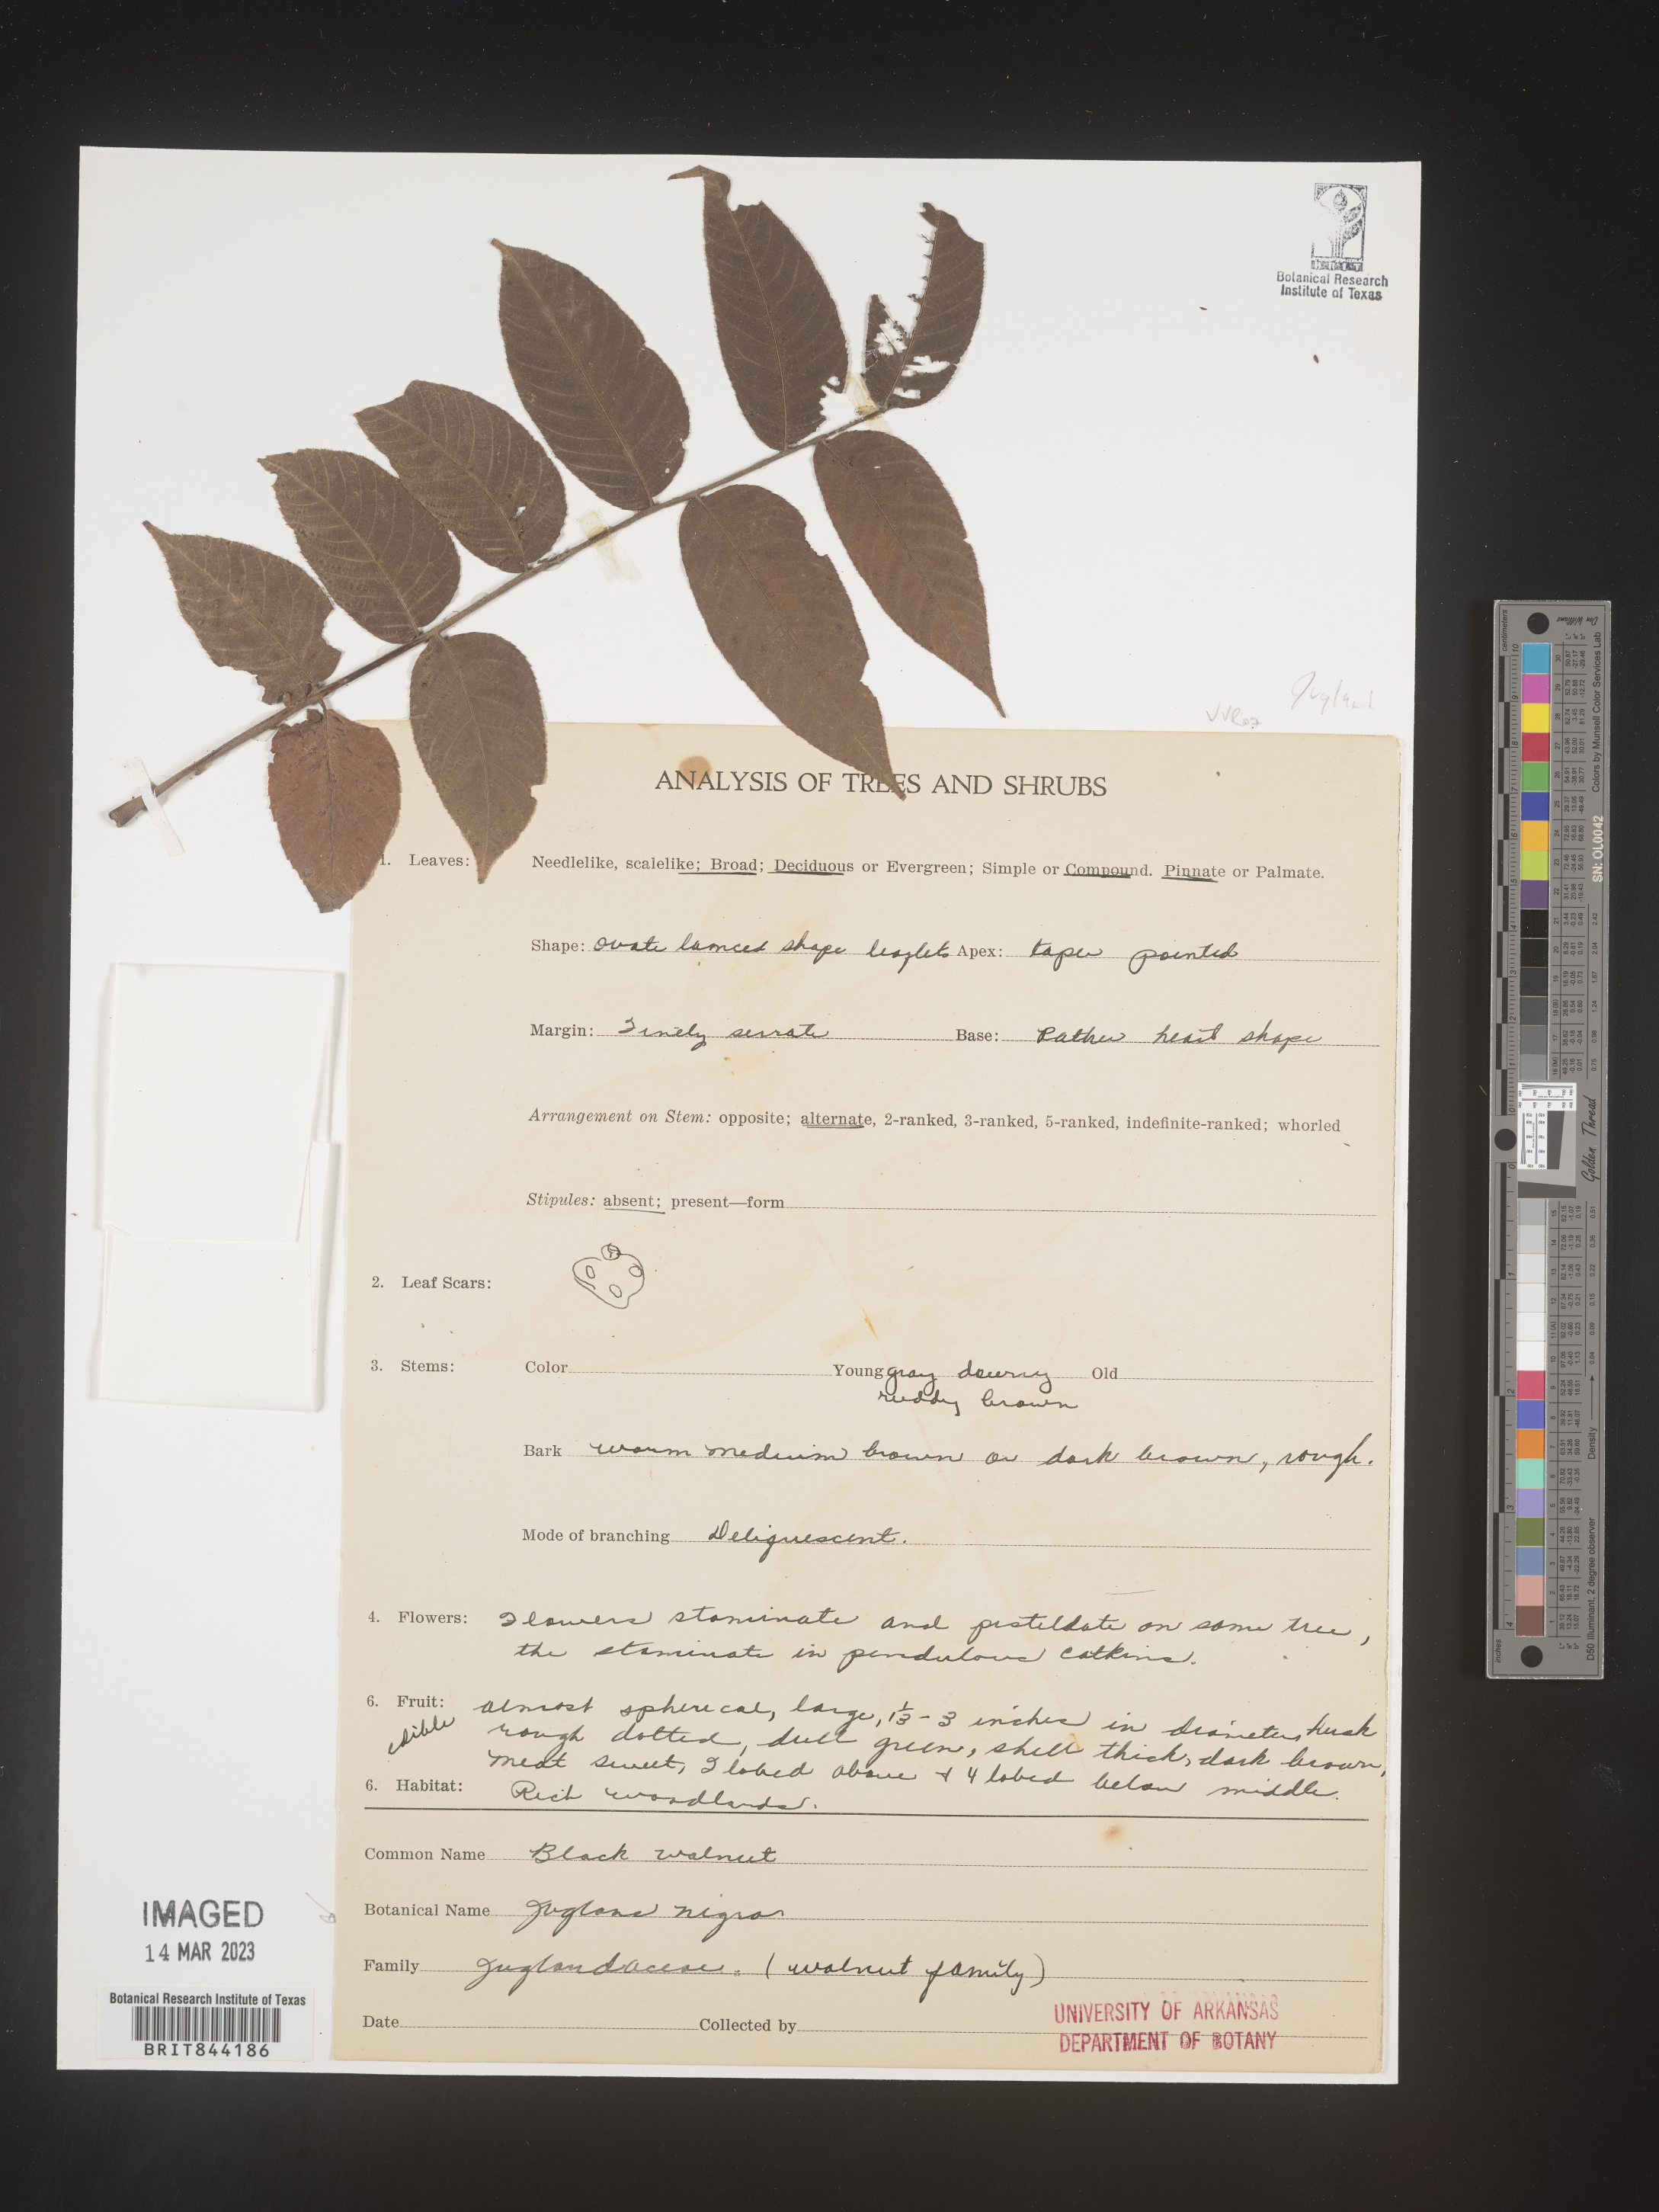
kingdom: Plantae
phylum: Tracheophyta
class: Magnoliopsida
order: Fagales
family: Juglandaceae
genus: Juglans
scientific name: Juglans nigra
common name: Black walnut
